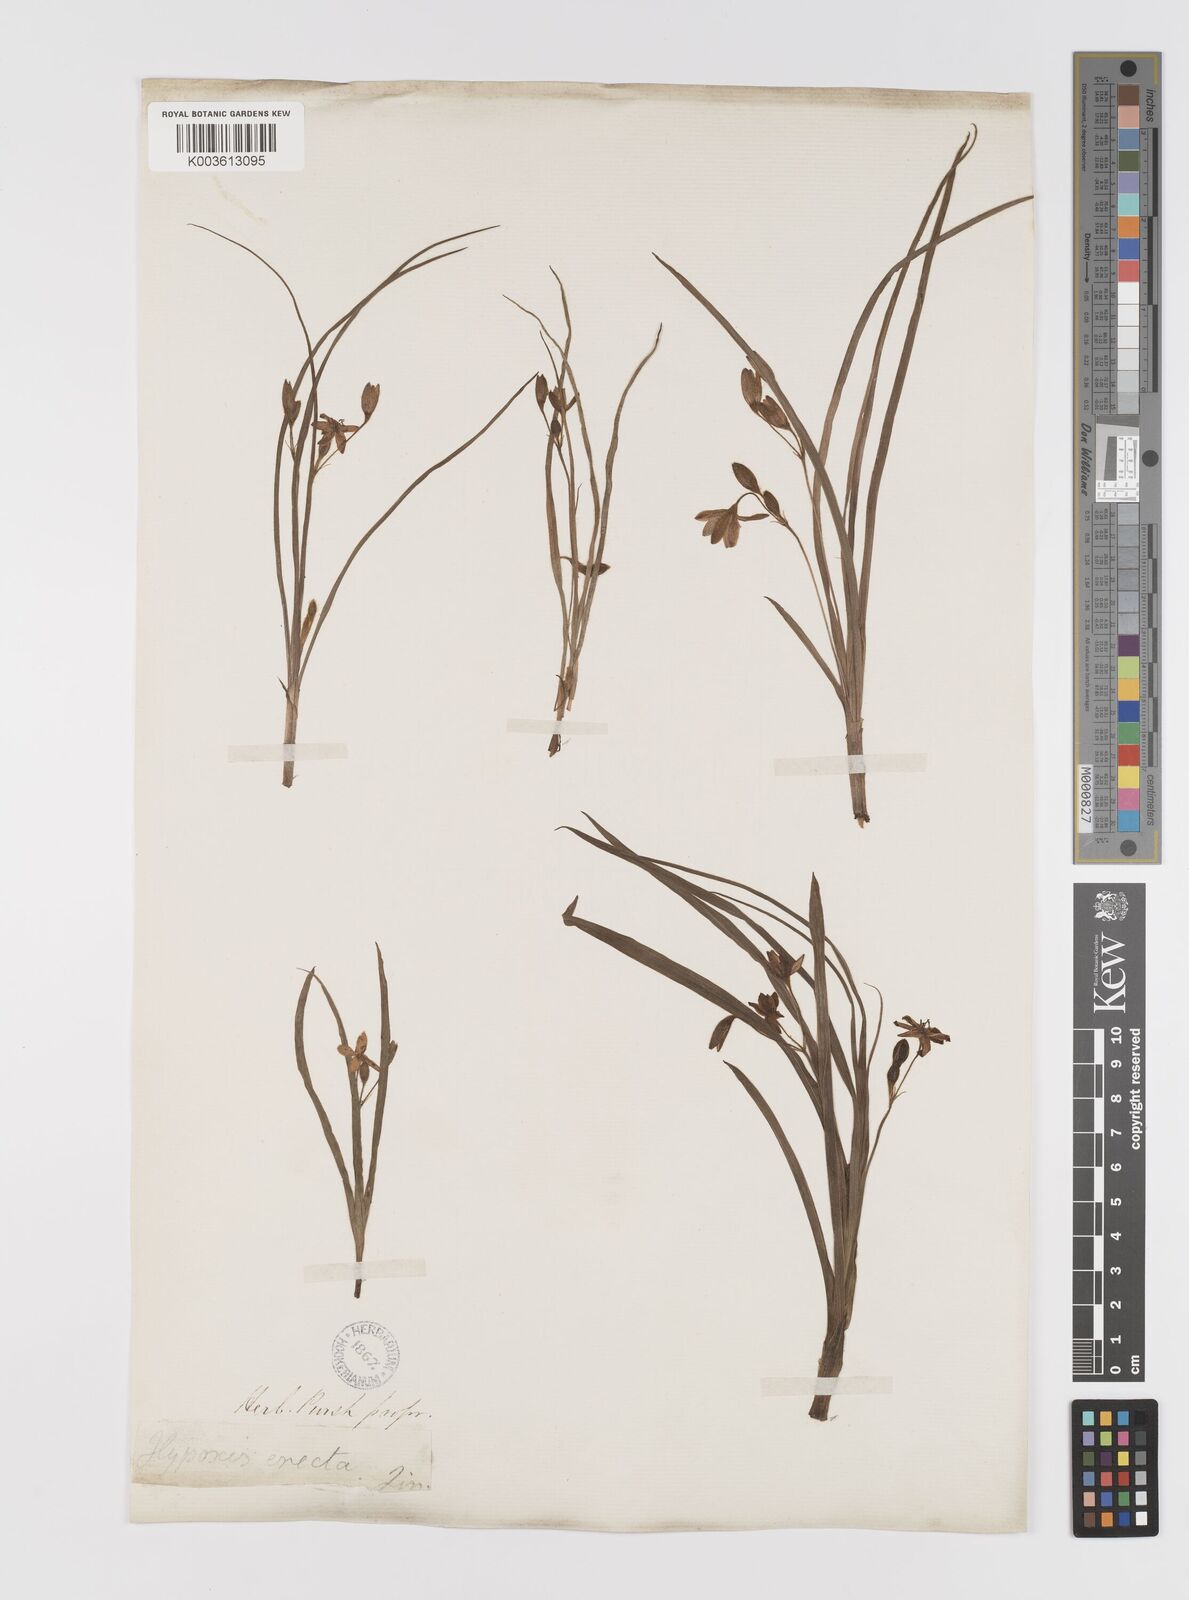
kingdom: Plantae
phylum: Tracheophyta
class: Liliopsida
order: Asparagales
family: Hypoxidaceae
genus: Hypoxis
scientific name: Hypoxis hirsuta
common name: Common goldstar
